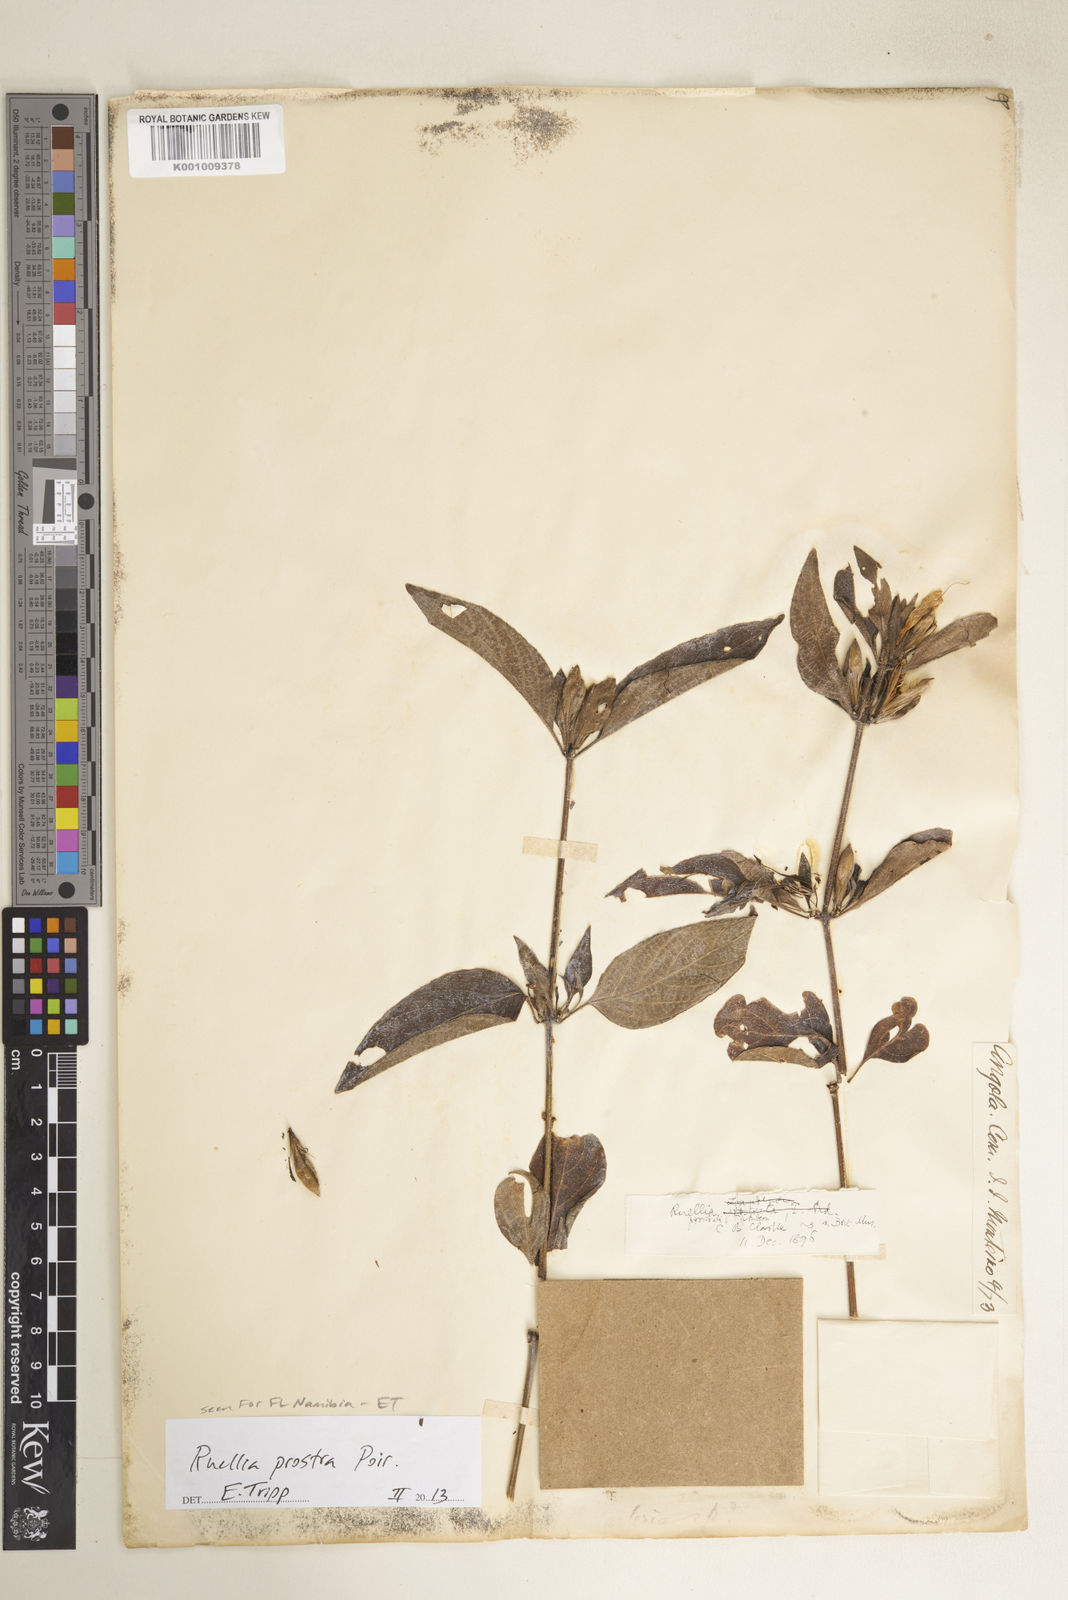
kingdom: Plantae
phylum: Tracheophyta
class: Magnoliopsida
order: Lamiales
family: Acanthaceae
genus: Ruellia
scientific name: Ruellia prostrata
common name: Prostrate wild petunia
